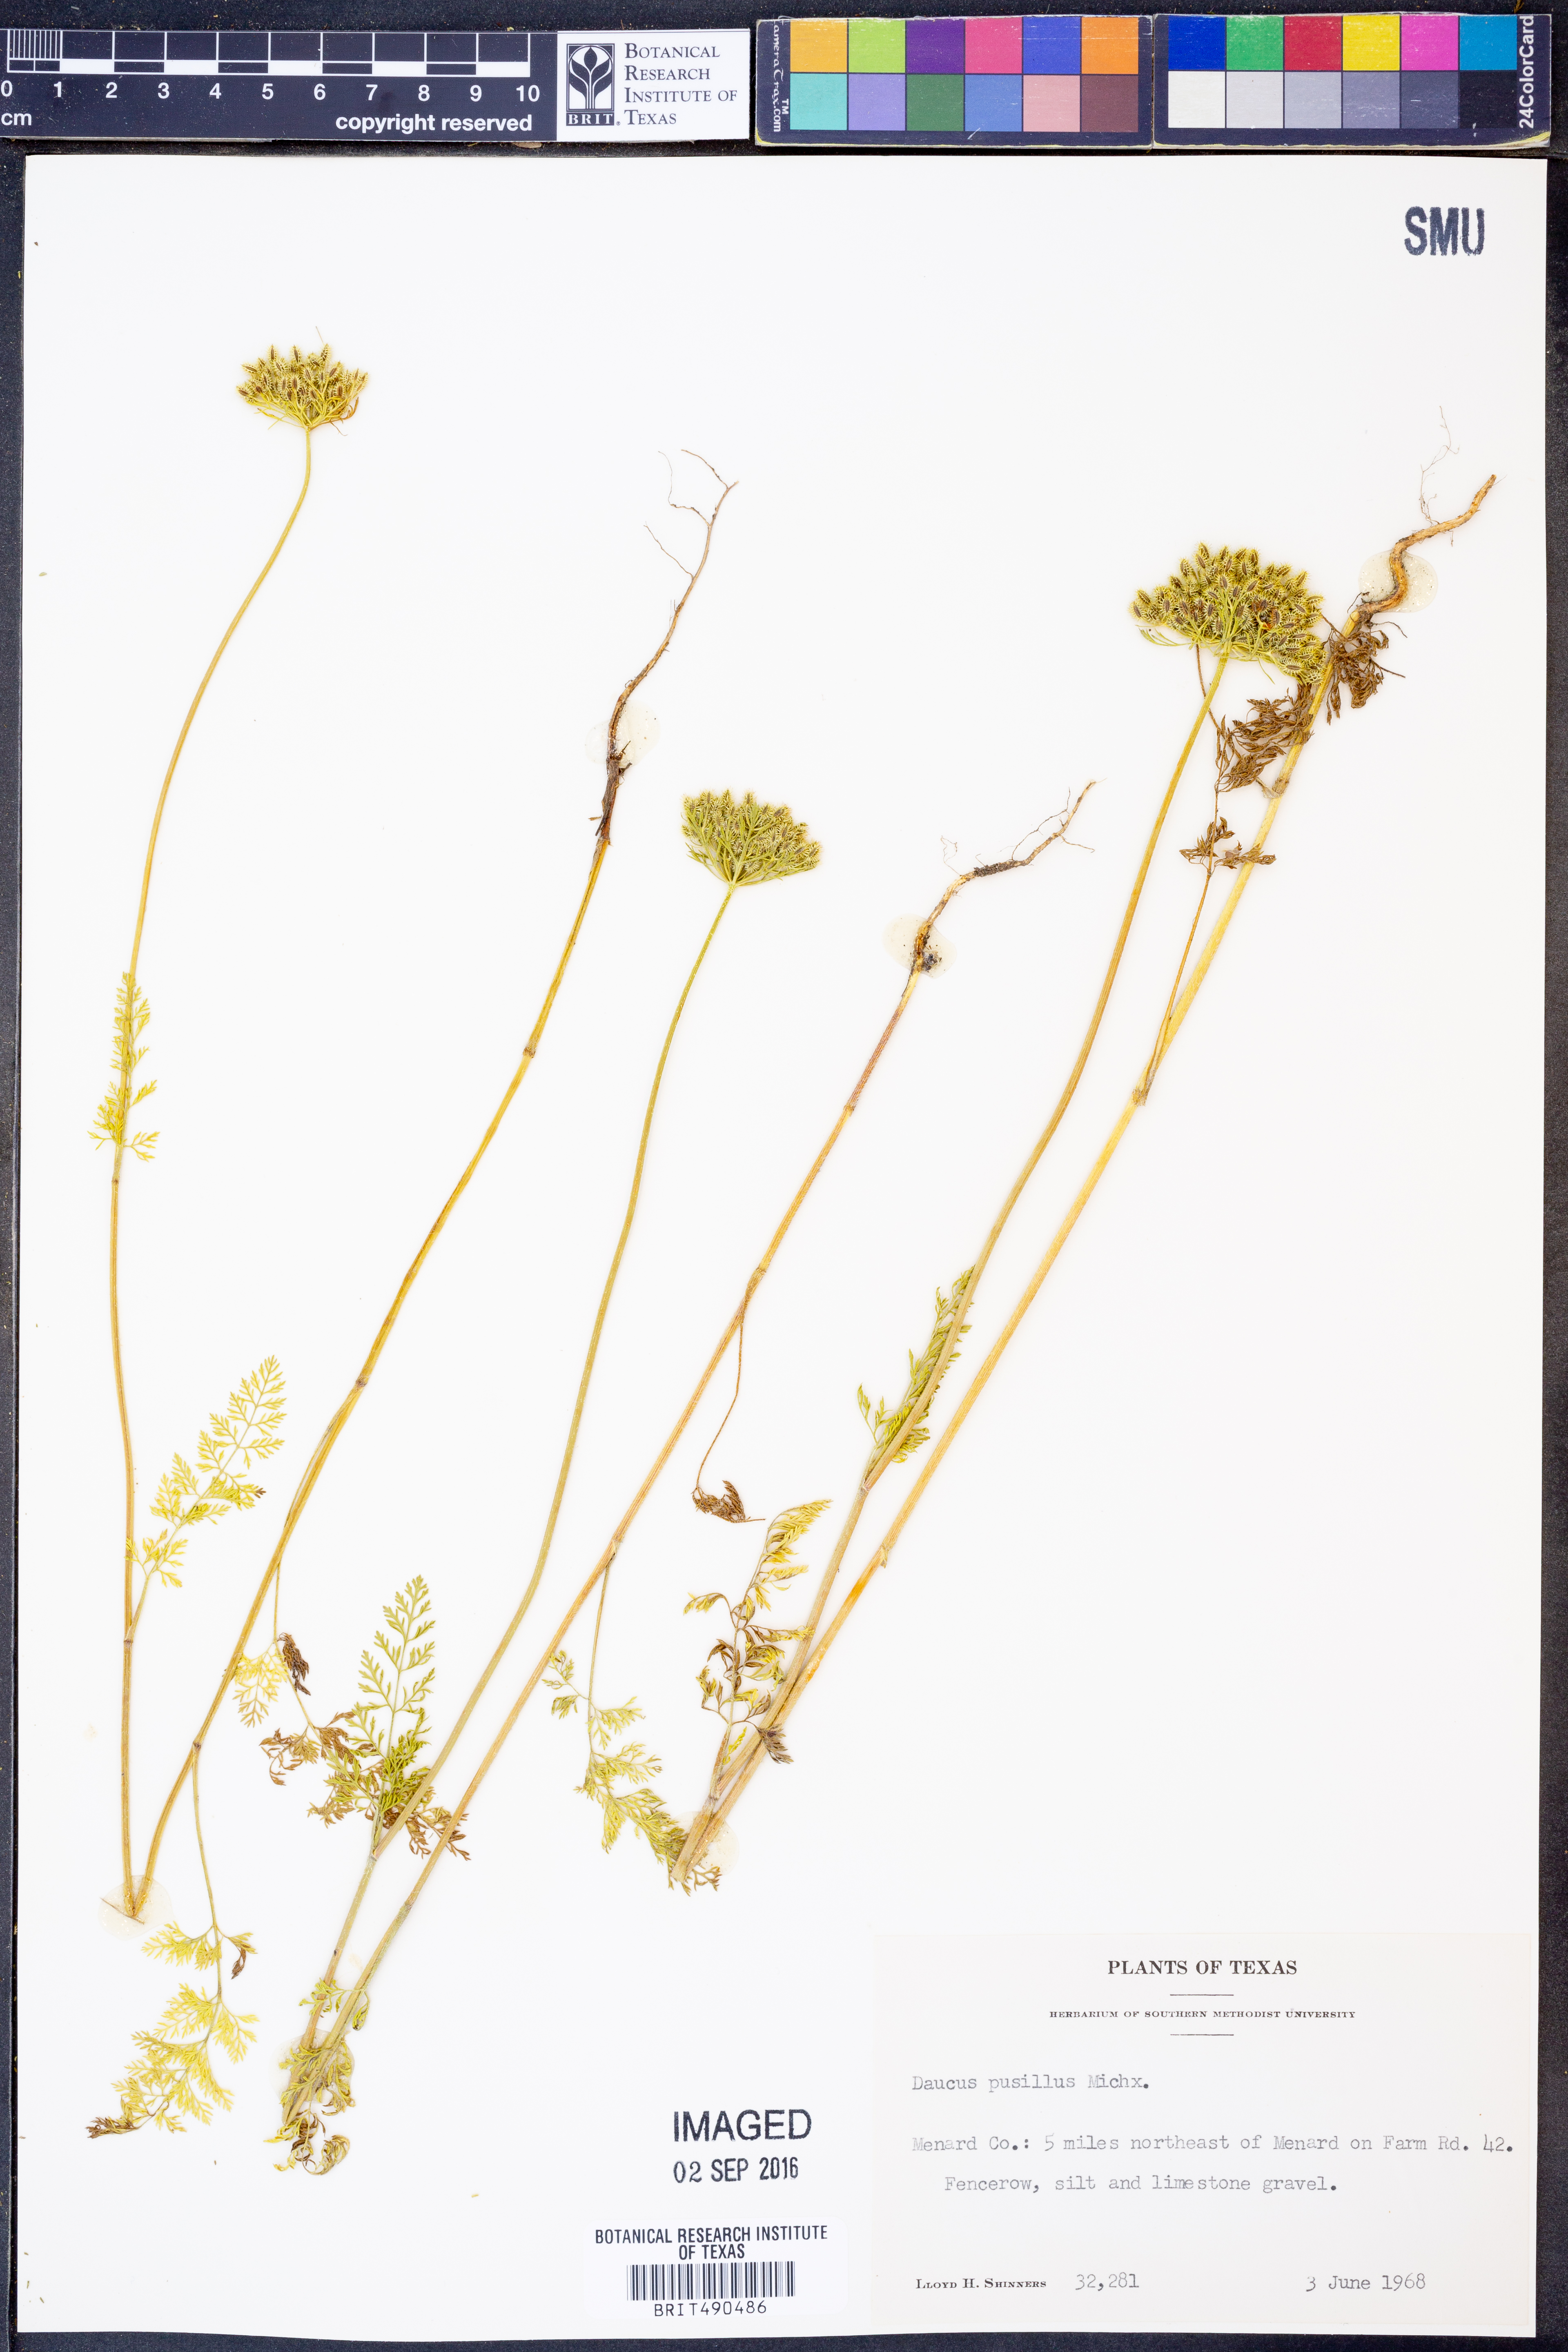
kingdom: Plantae
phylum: Tracheophyta
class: Magnoliopsida
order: Apiales
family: Apiaceae
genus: Daucus
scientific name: Daucus pusillus
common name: Southwest wild carrot
